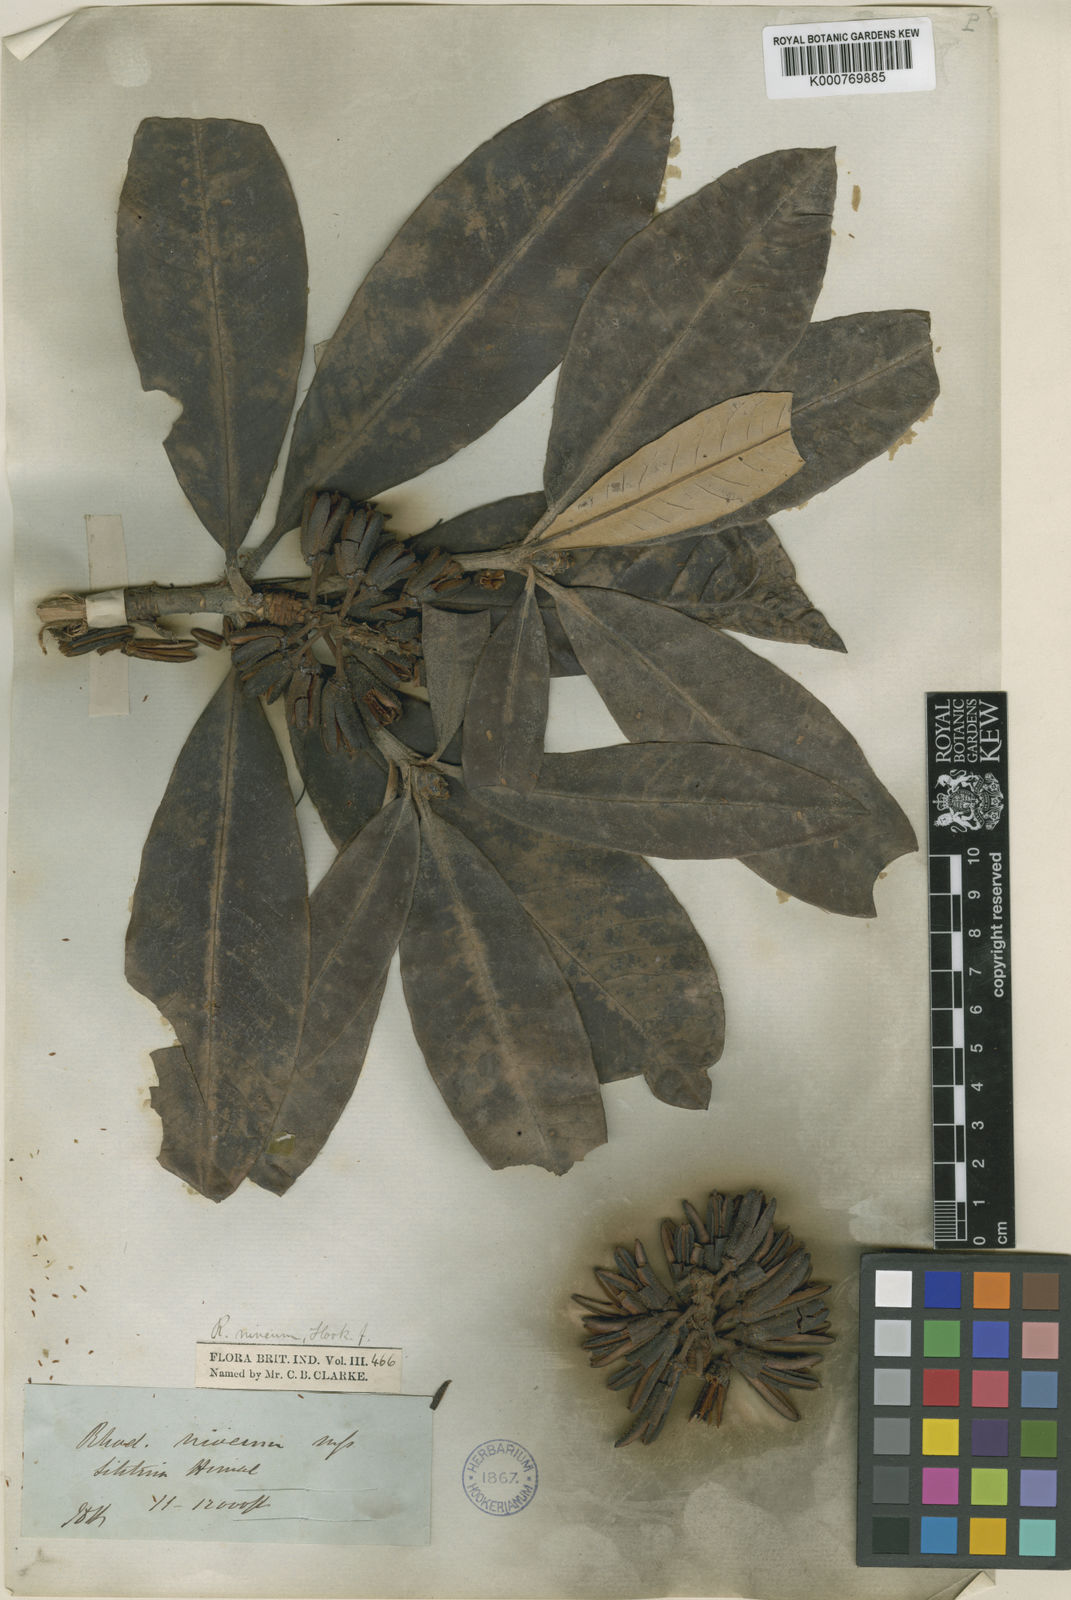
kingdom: Plantae
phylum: Tracheophyta
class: Magnoliopsida
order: Ericales
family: Ericaceae
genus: Rhododendron
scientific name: Rhododendron
